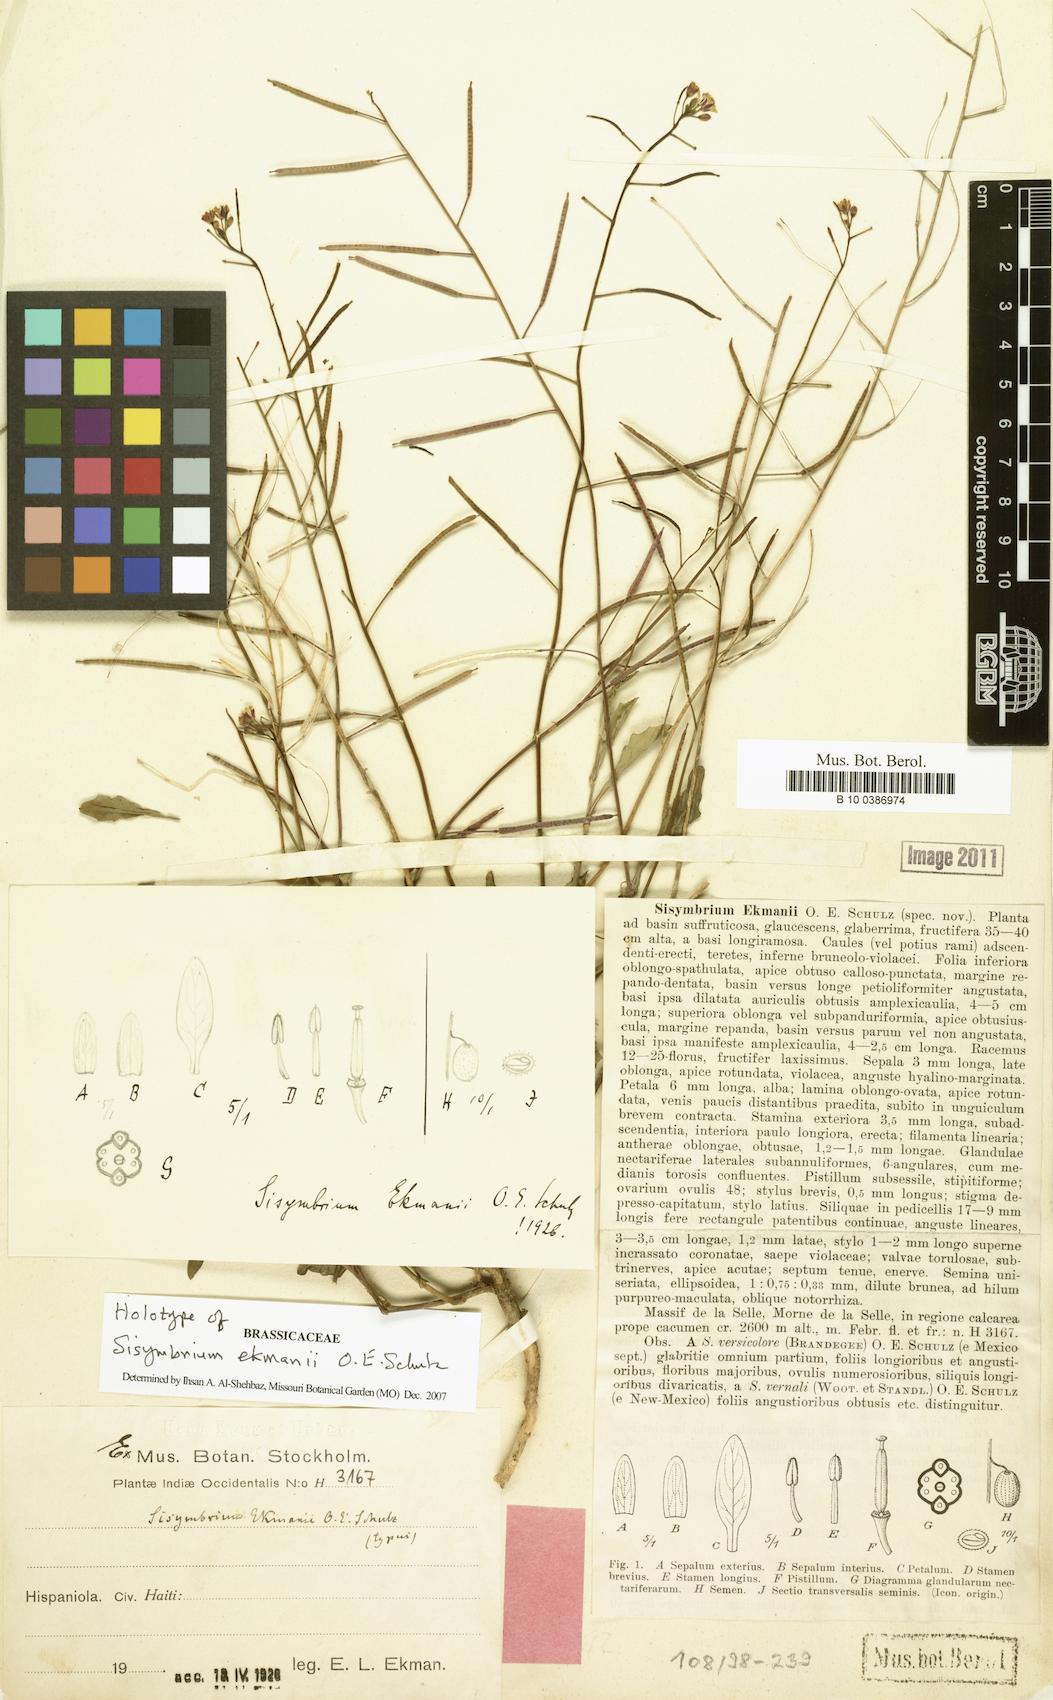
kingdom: Plantae
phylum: Tracheophyta
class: Magnoliopsida
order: Brassicales
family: Brassicaceae
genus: Mostacillastrum
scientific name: Mostacillastrum ekmanii
